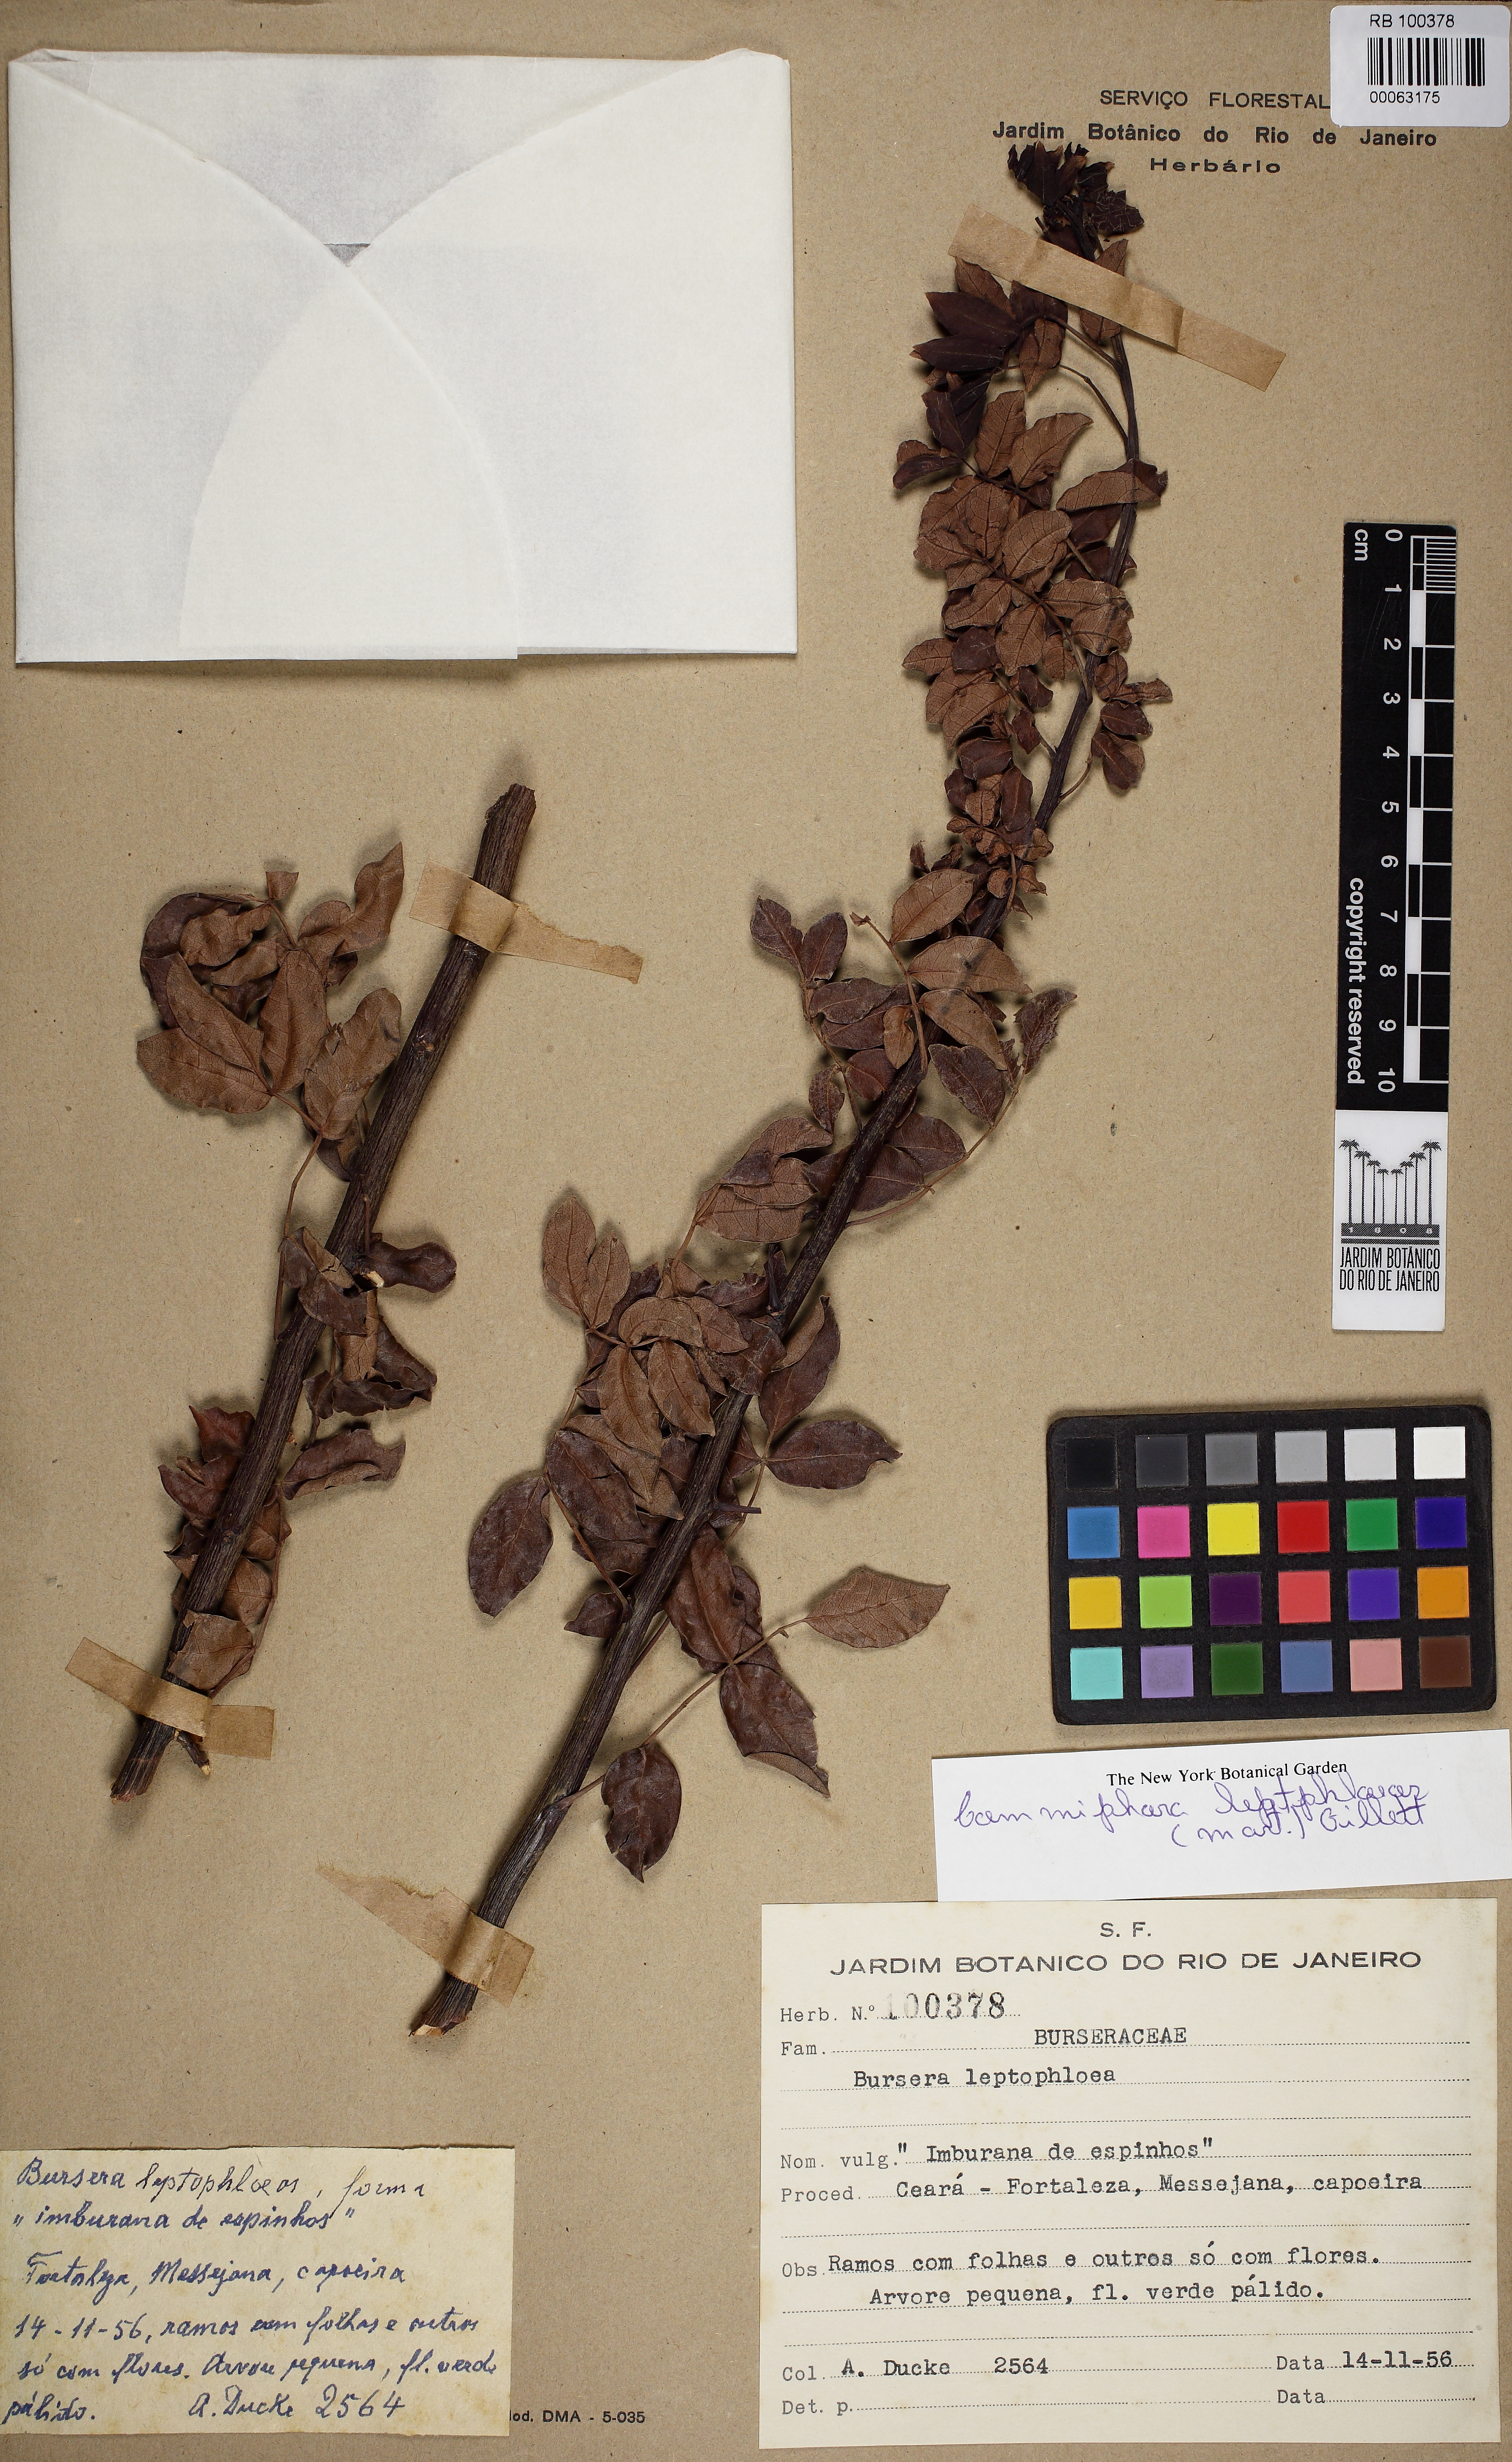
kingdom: Plantae
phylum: Tracheophyta
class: Magnoliopsida
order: Sapindales
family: Burseraceae
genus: Bursera
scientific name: Bursera leptophloeos
